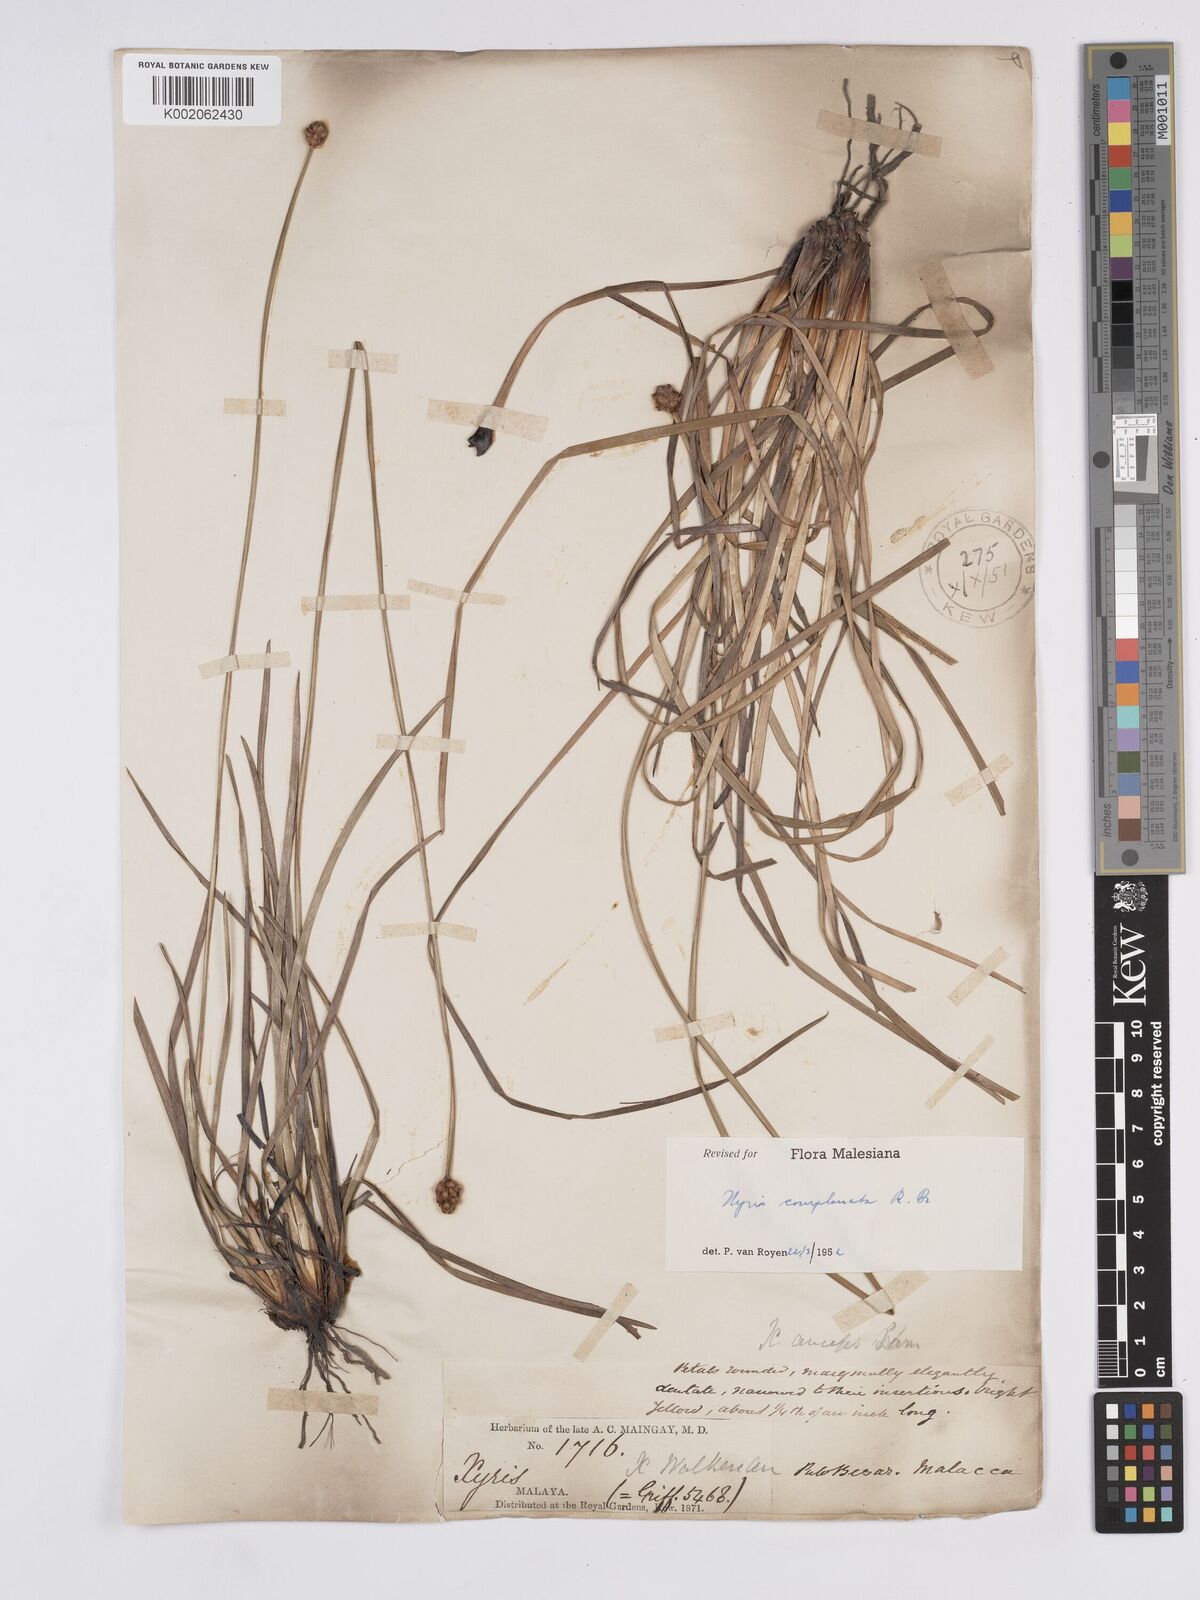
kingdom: Plantae
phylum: Tracheophyta
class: Liliopsida
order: Poales
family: Xyridaceae
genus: Xyris
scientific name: Xyris complanata
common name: Hawai'i yelloweyed grass
